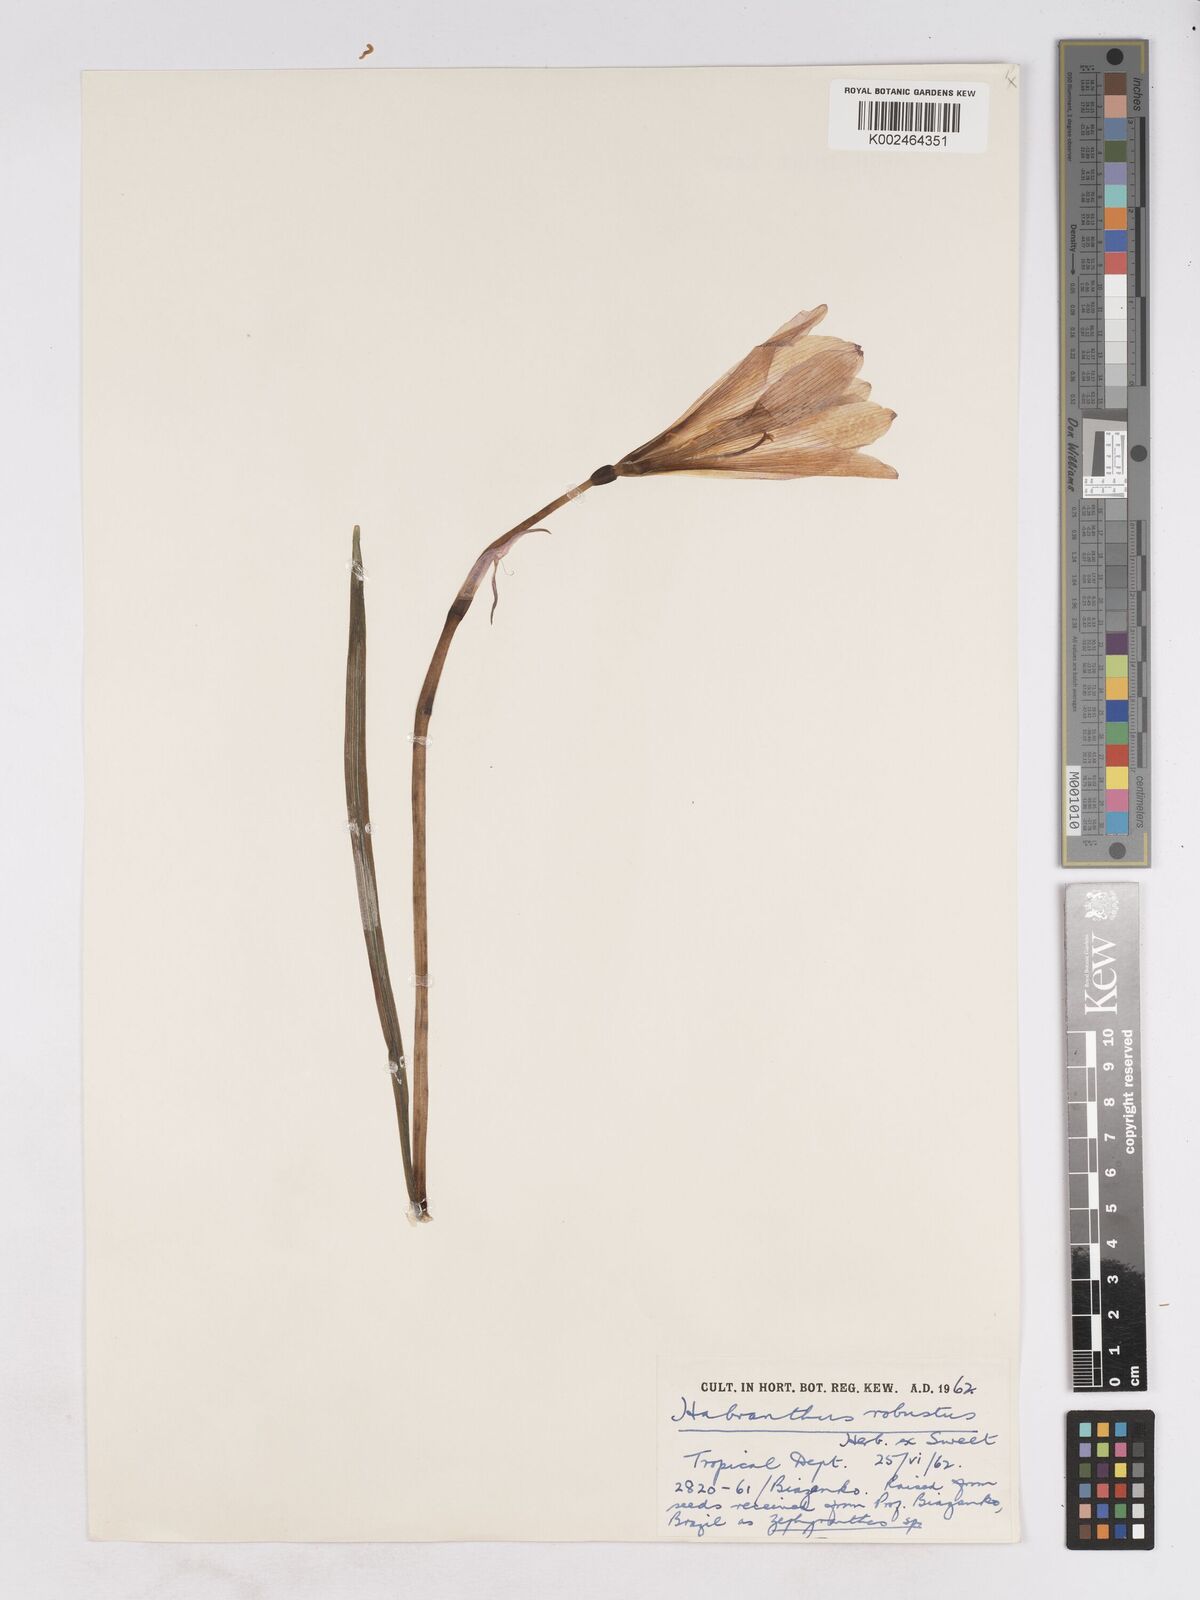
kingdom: Plantae
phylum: Tracheophyta
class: Liliopsida
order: Asparagales
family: Amaryllidaceae
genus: Zephyranthes
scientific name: Zephyranthes robusta
